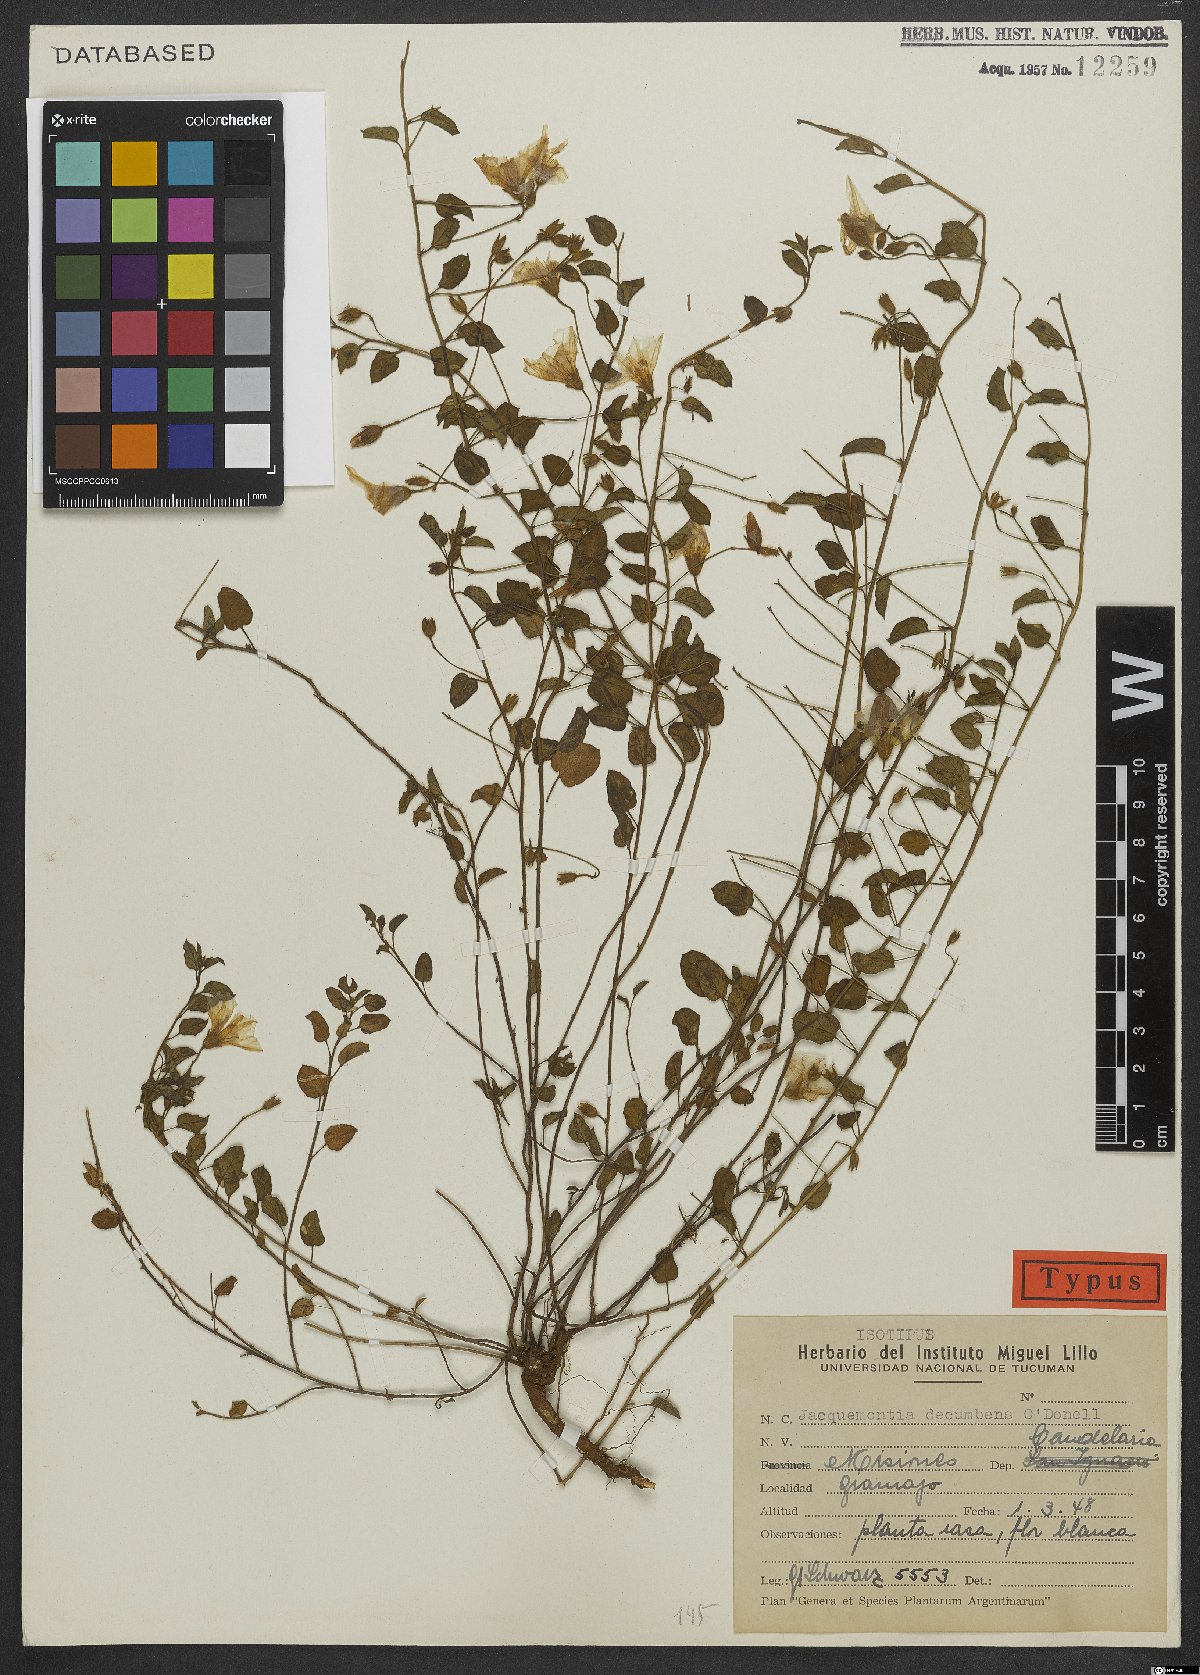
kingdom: Plantae
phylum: Tracheophyta
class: Magnoliopsida
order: Solanales
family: Convolvulaceae
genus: Jacquemontia
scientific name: Jacquemontia evolvuloides
